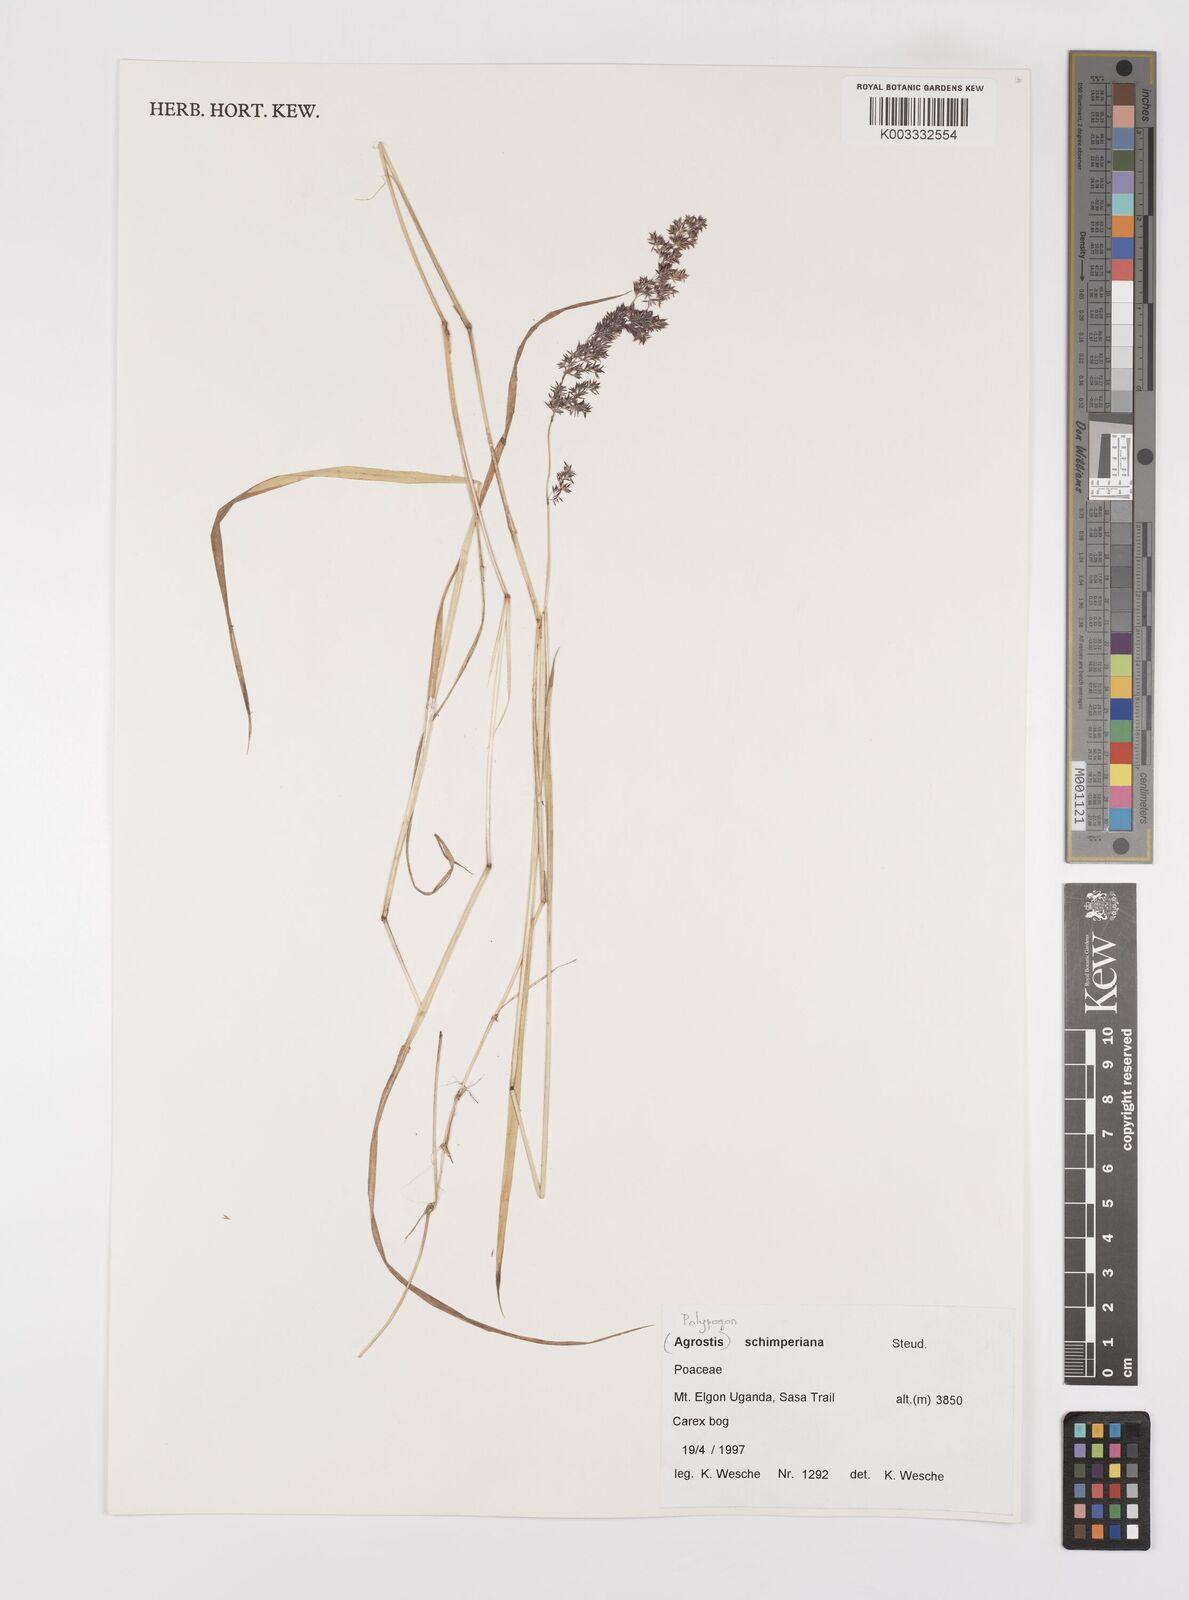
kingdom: Plantae
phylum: Tracheophyta
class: Liliopsida
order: Poales
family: Poaceae
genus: Polypogon
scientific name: Polypogon schimperianus
